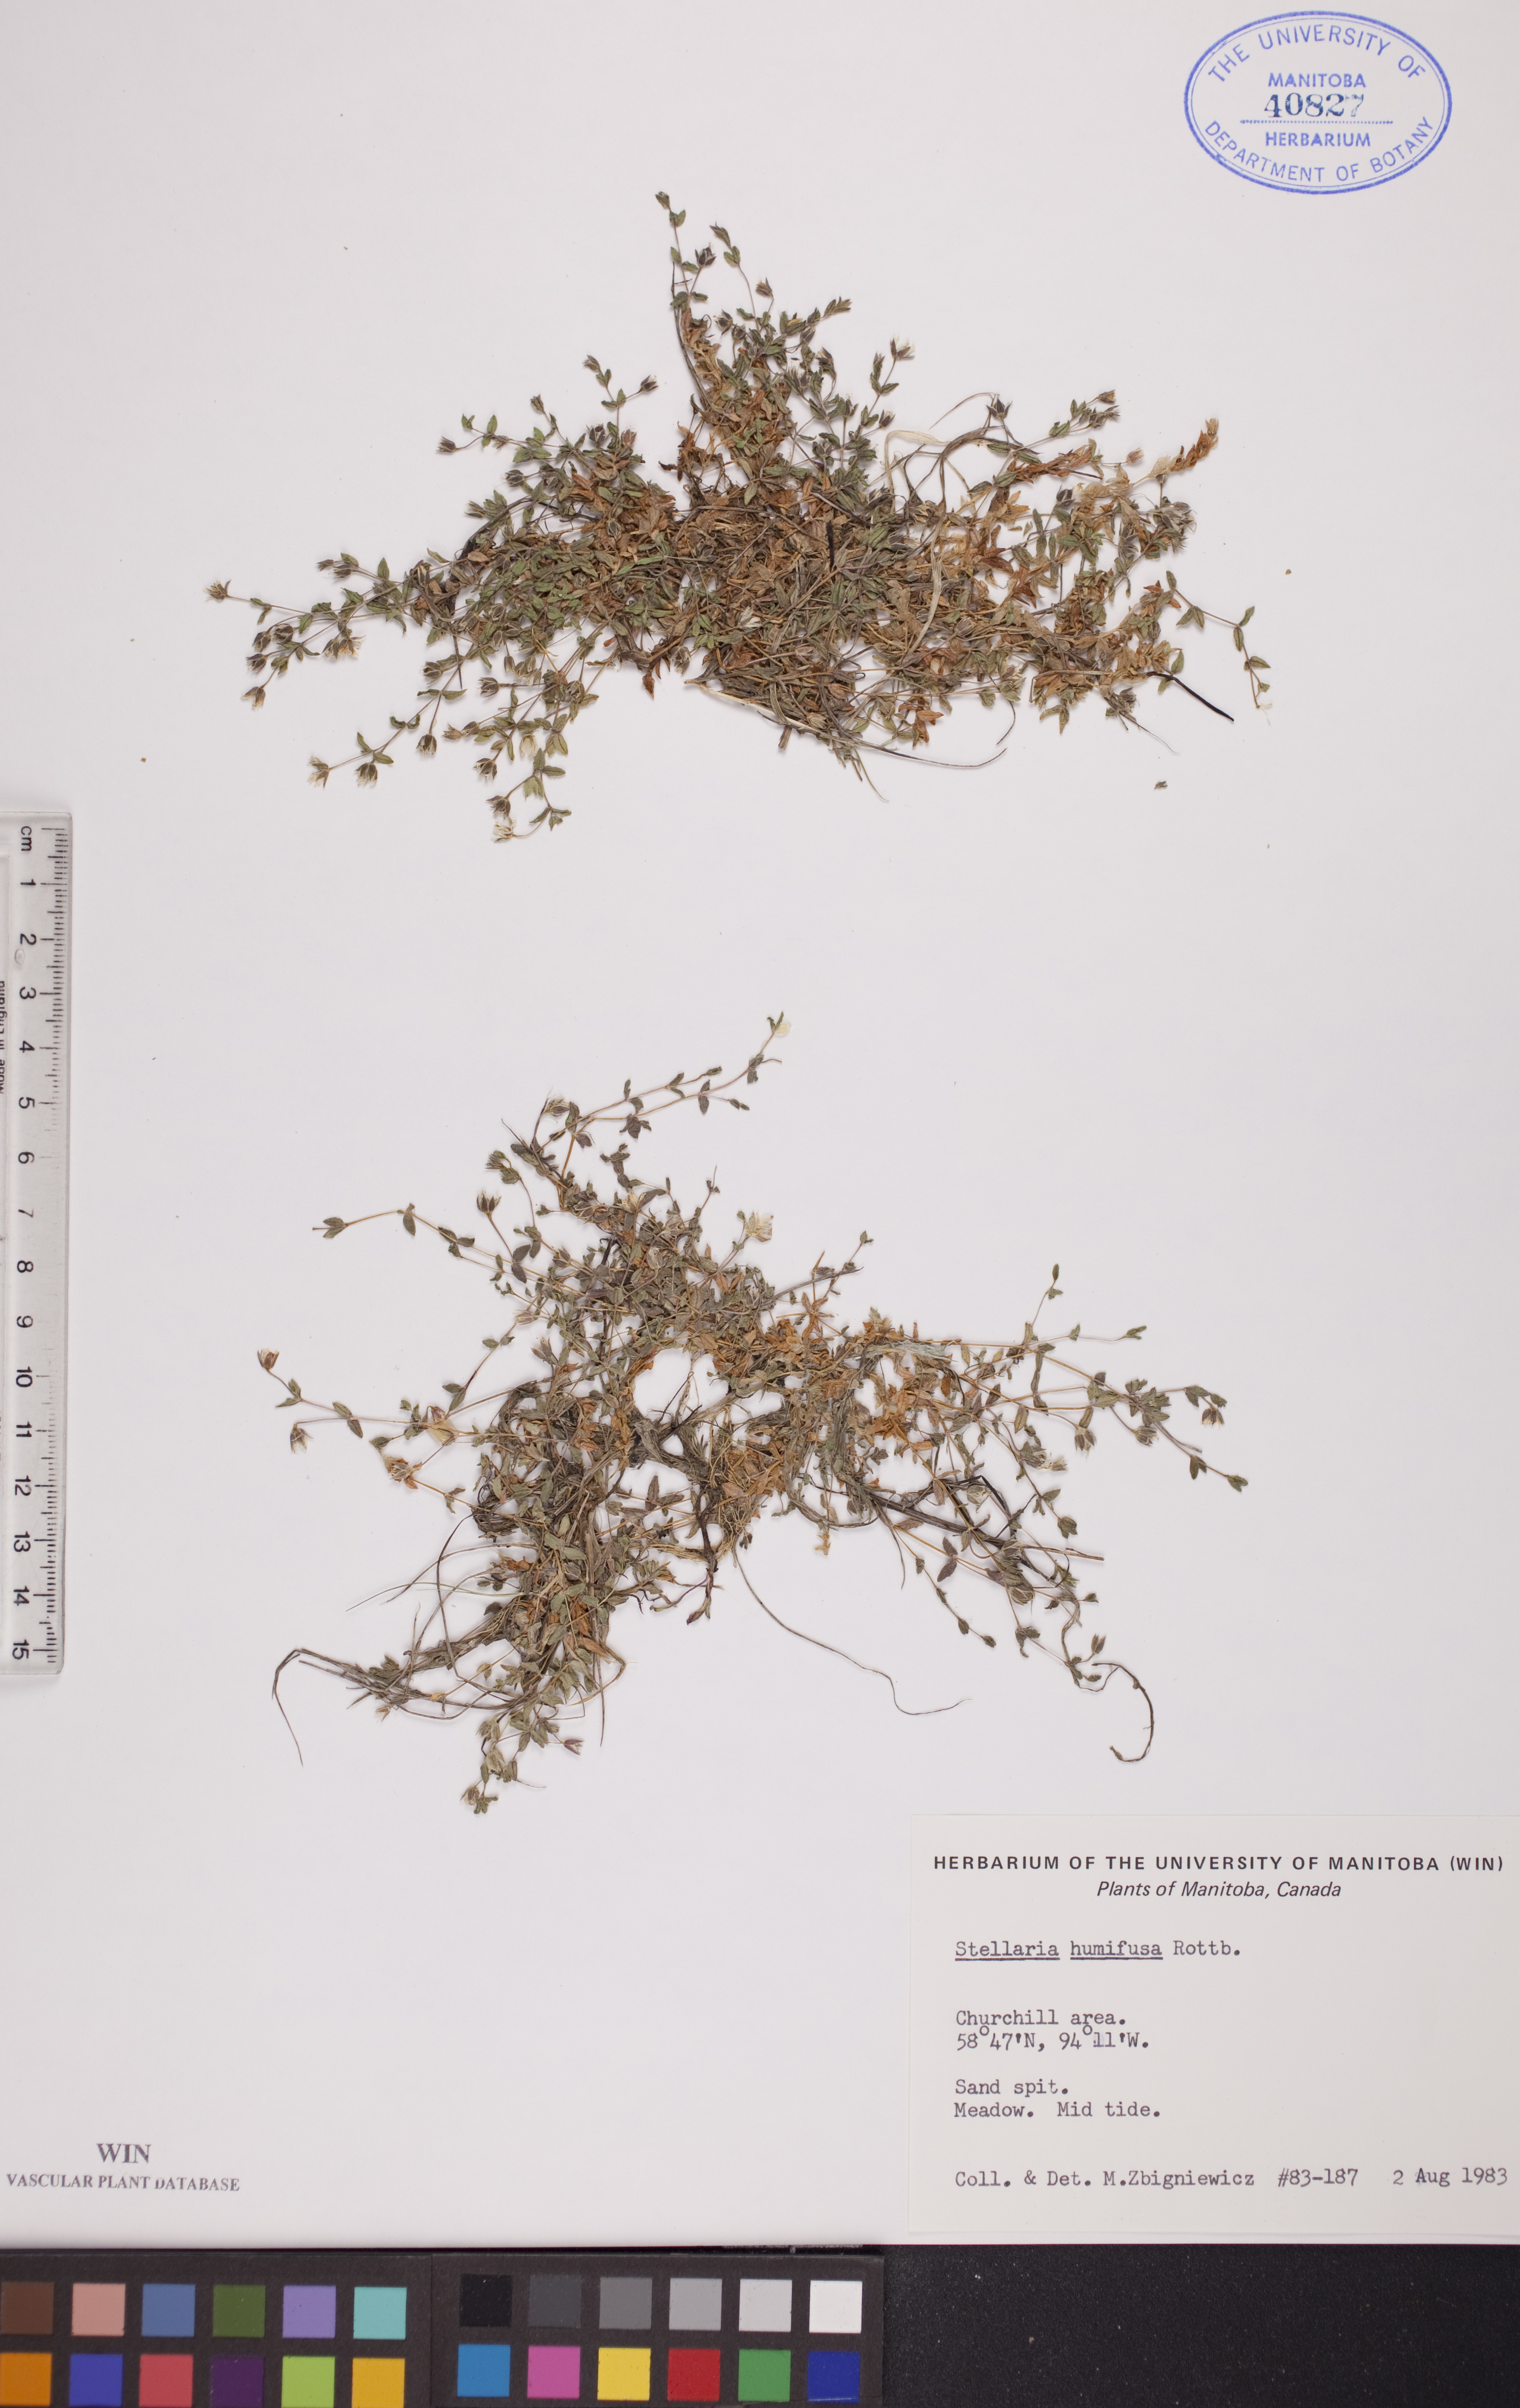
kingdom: Plantae
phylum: Tracheophyta
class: Magnoliopsida
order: Caryophyllales
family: Caryophyllaceae
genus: Stellaria
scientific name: Stellaria humifusa
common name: Creeping starwort
